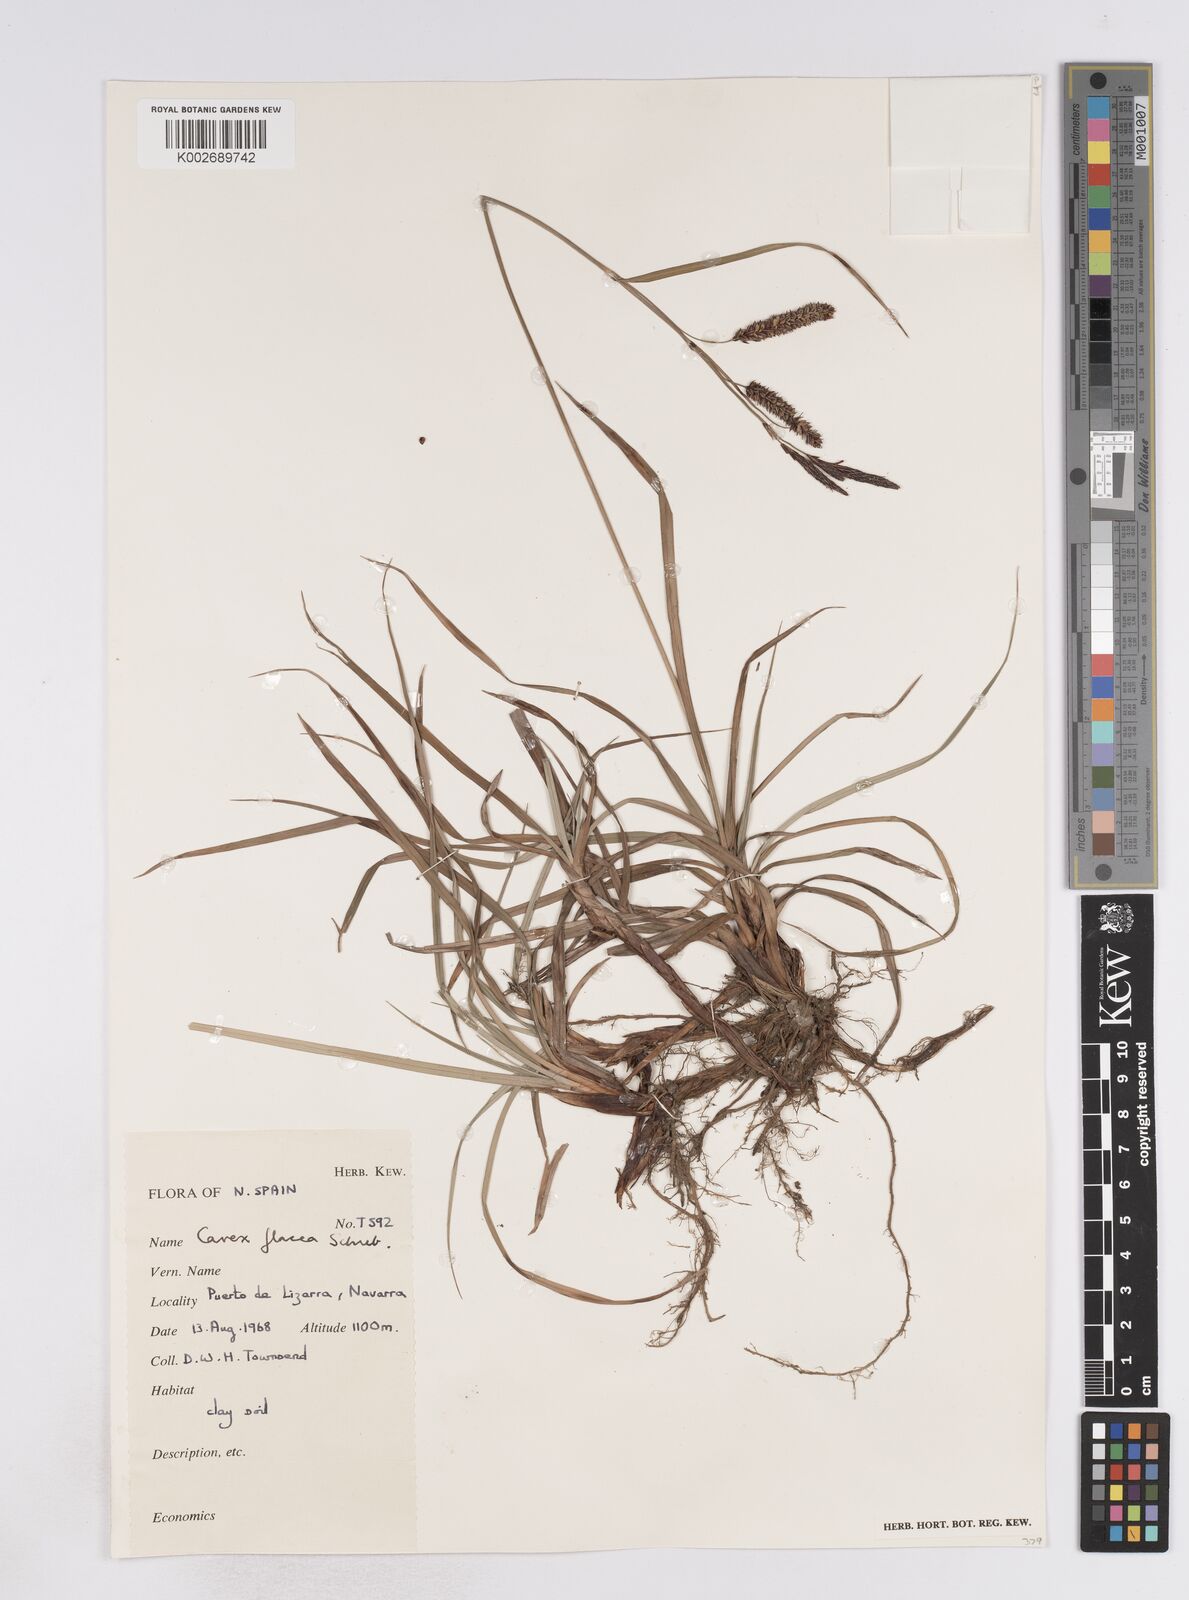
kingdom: Plantae
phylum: Tracheophyta
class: Liliopsida
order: Poales
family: Cyperaceae
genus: Carex
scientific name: Carex flacca
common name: Glaucous sedge
